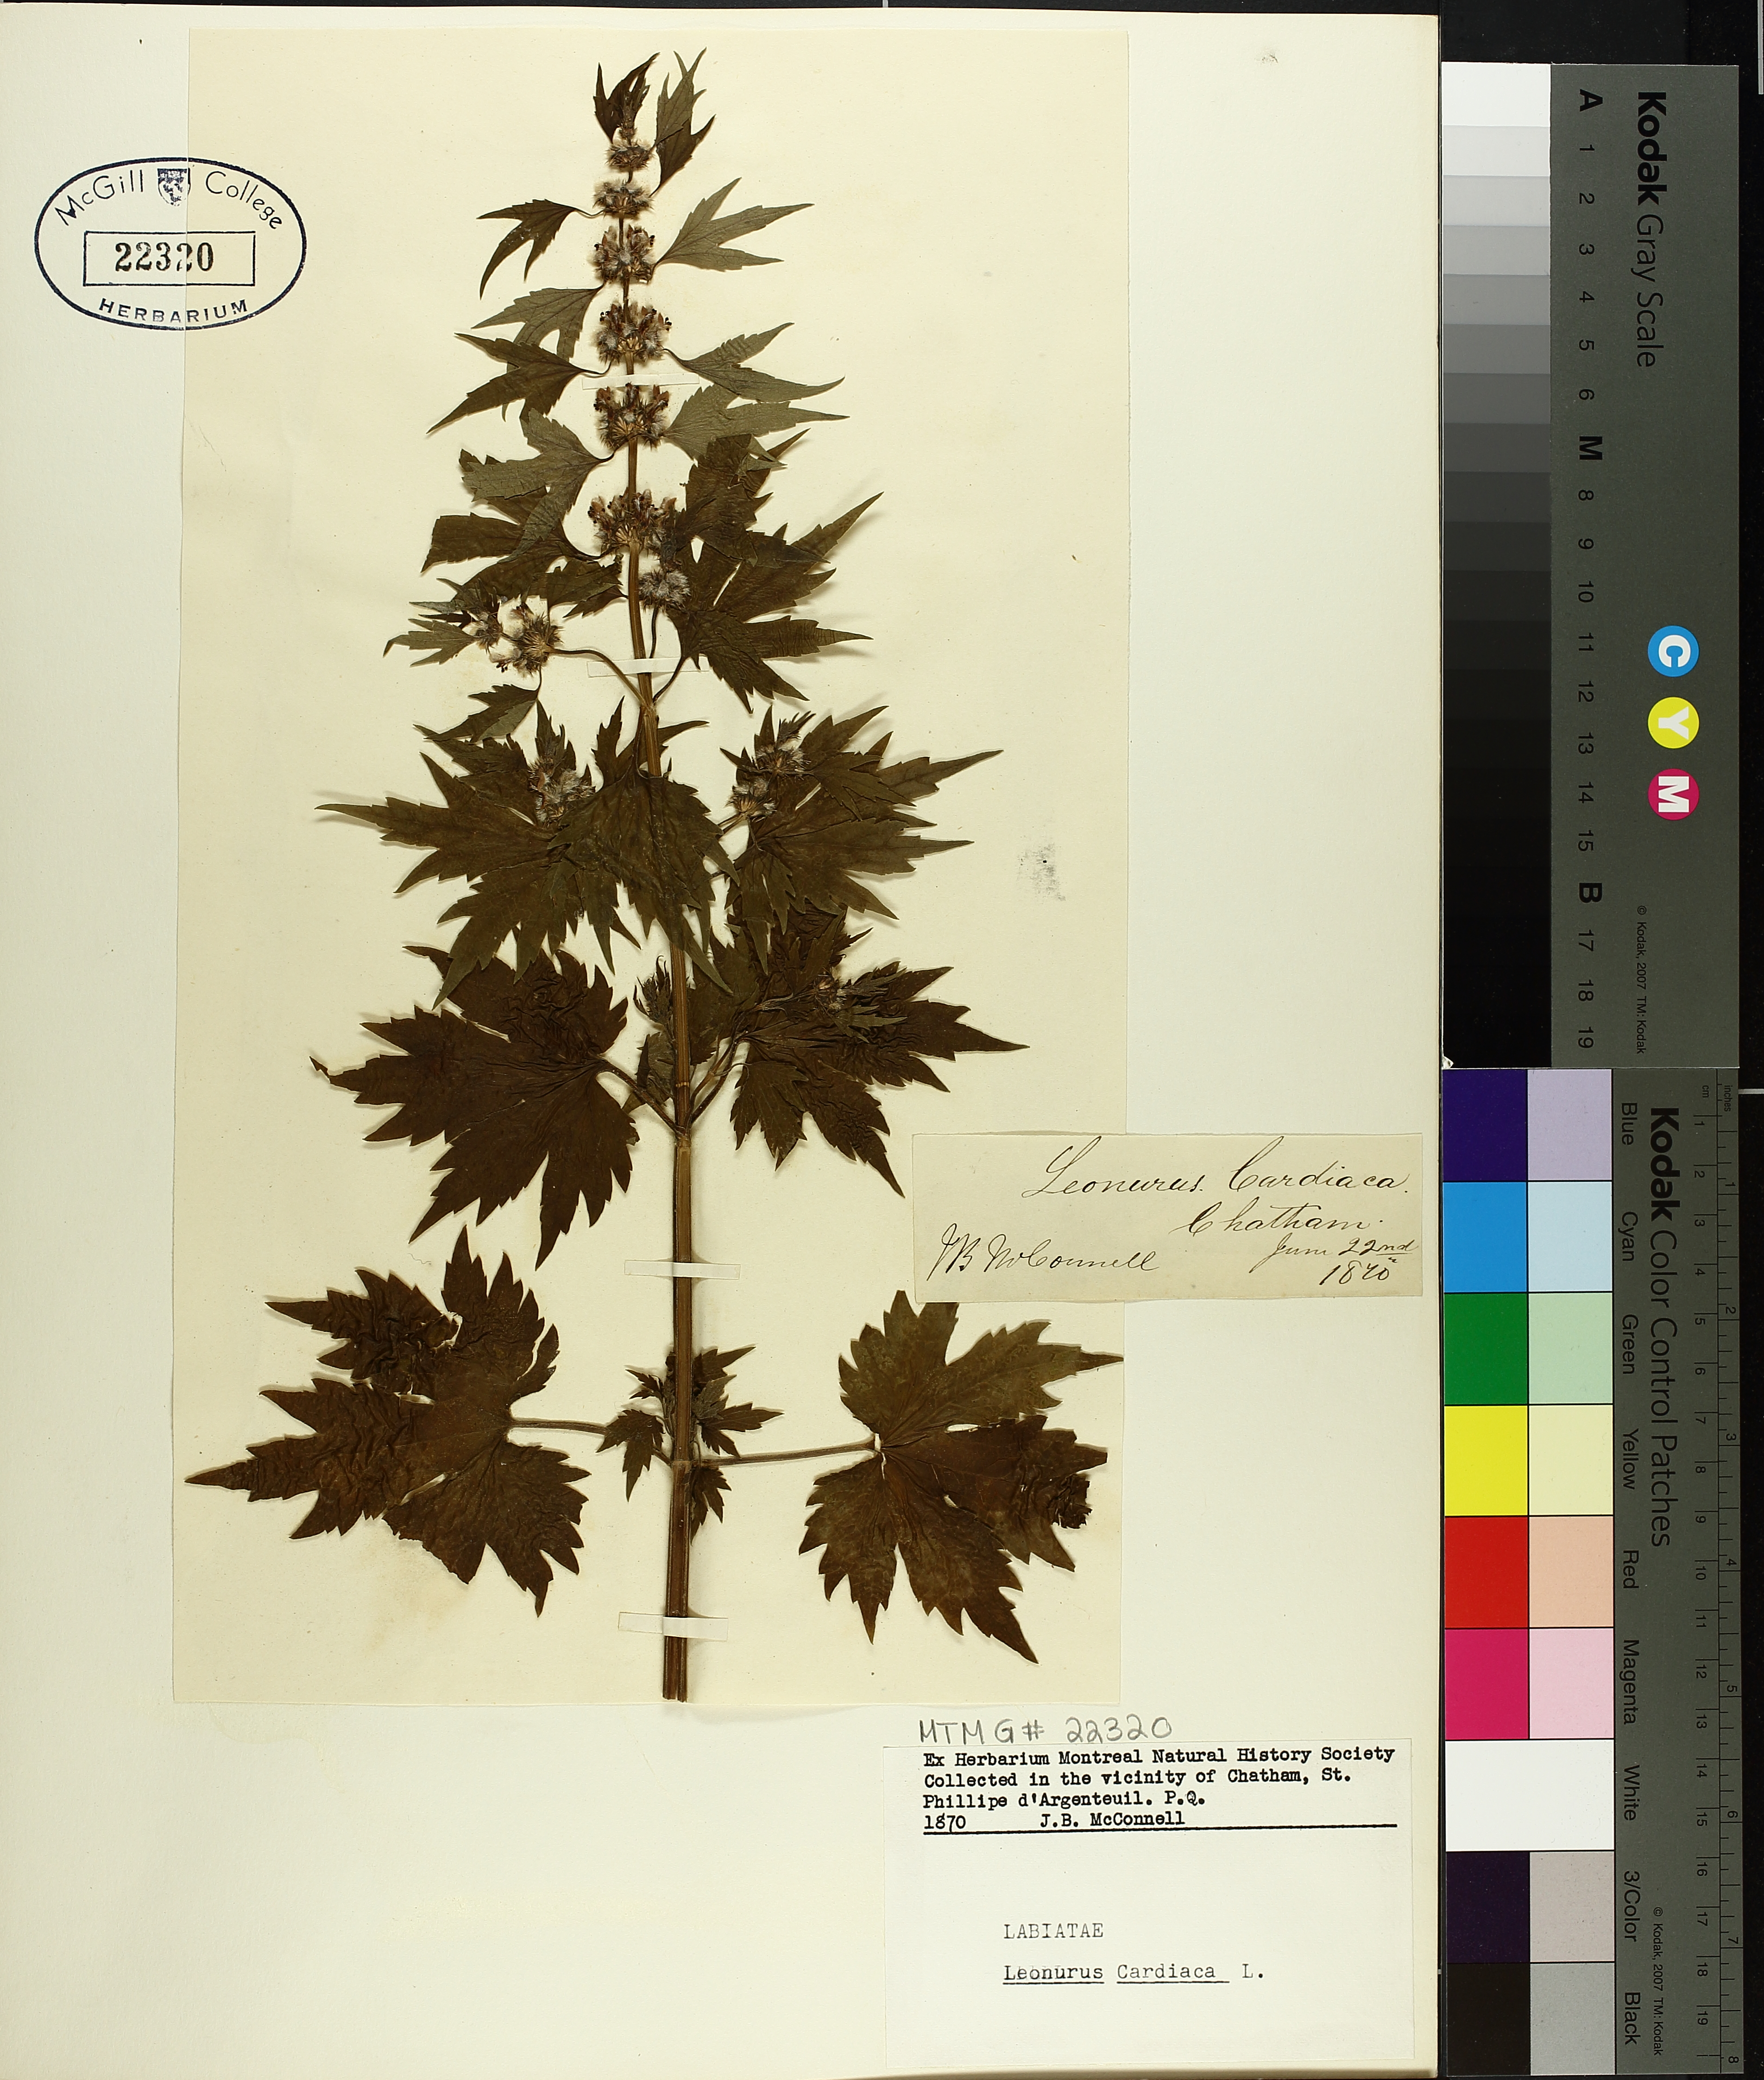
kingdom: Plantae
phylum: Tracheophyta
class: Magnoliopsida
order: Lamiales
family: Lamiaceae
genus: Leonurus
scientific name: Leonurus cardiaca
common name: Motherwort
